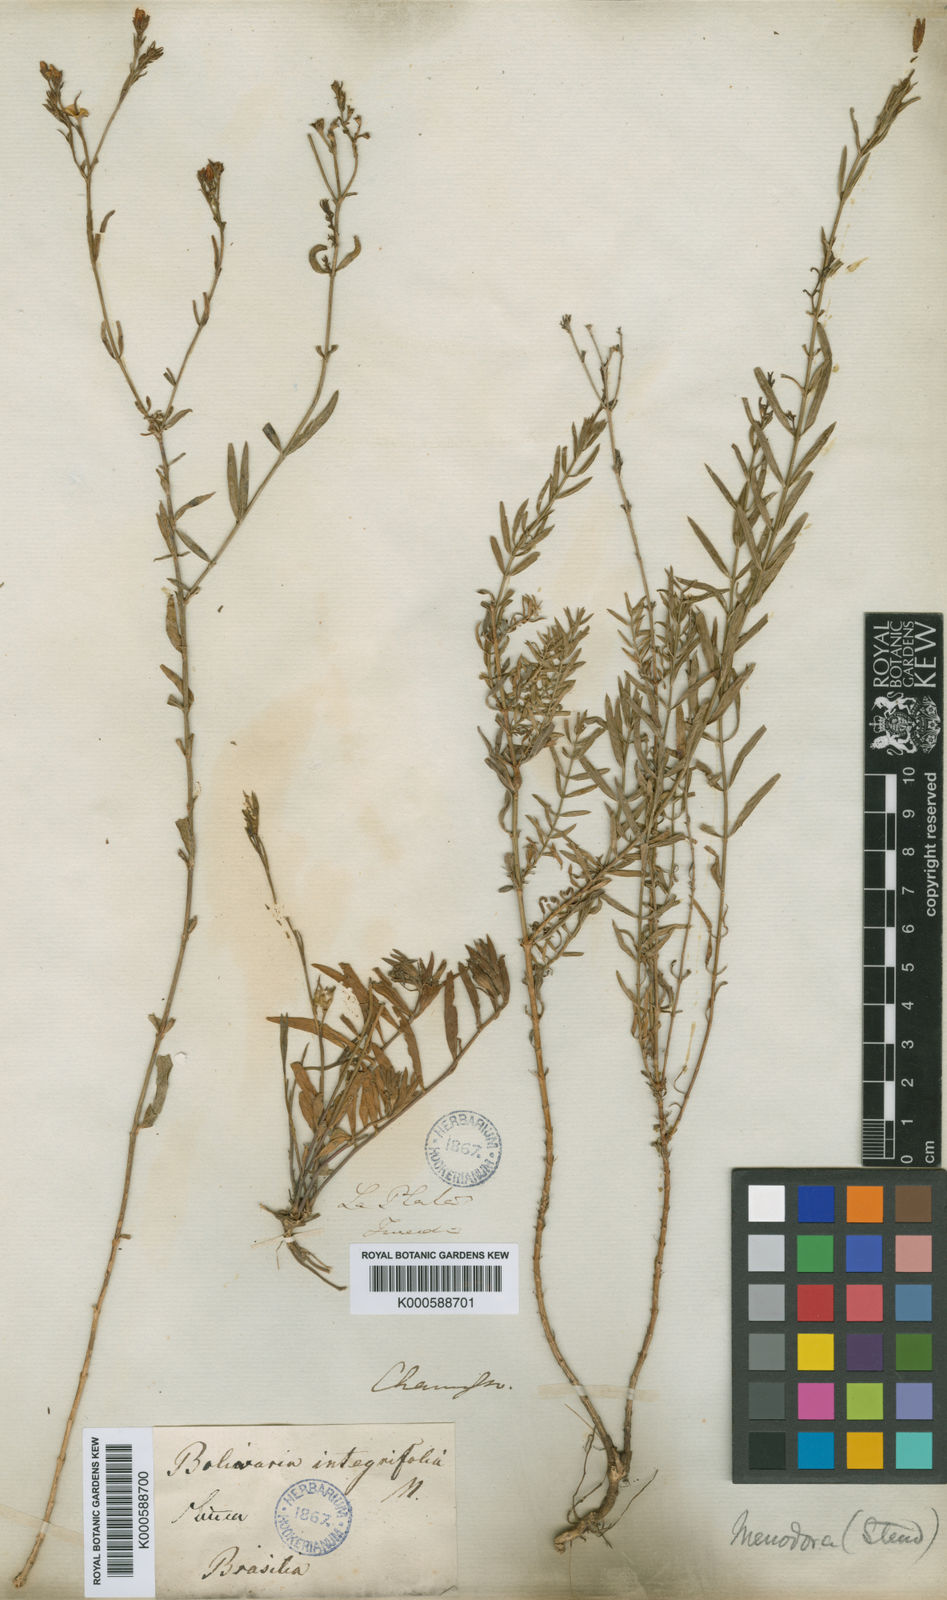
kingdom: Plantae
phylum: Tracheophyta
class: Magnoliopsida
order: Lamiales
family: Oleaceae
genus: Menodora
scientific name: Menodora integrifolia
